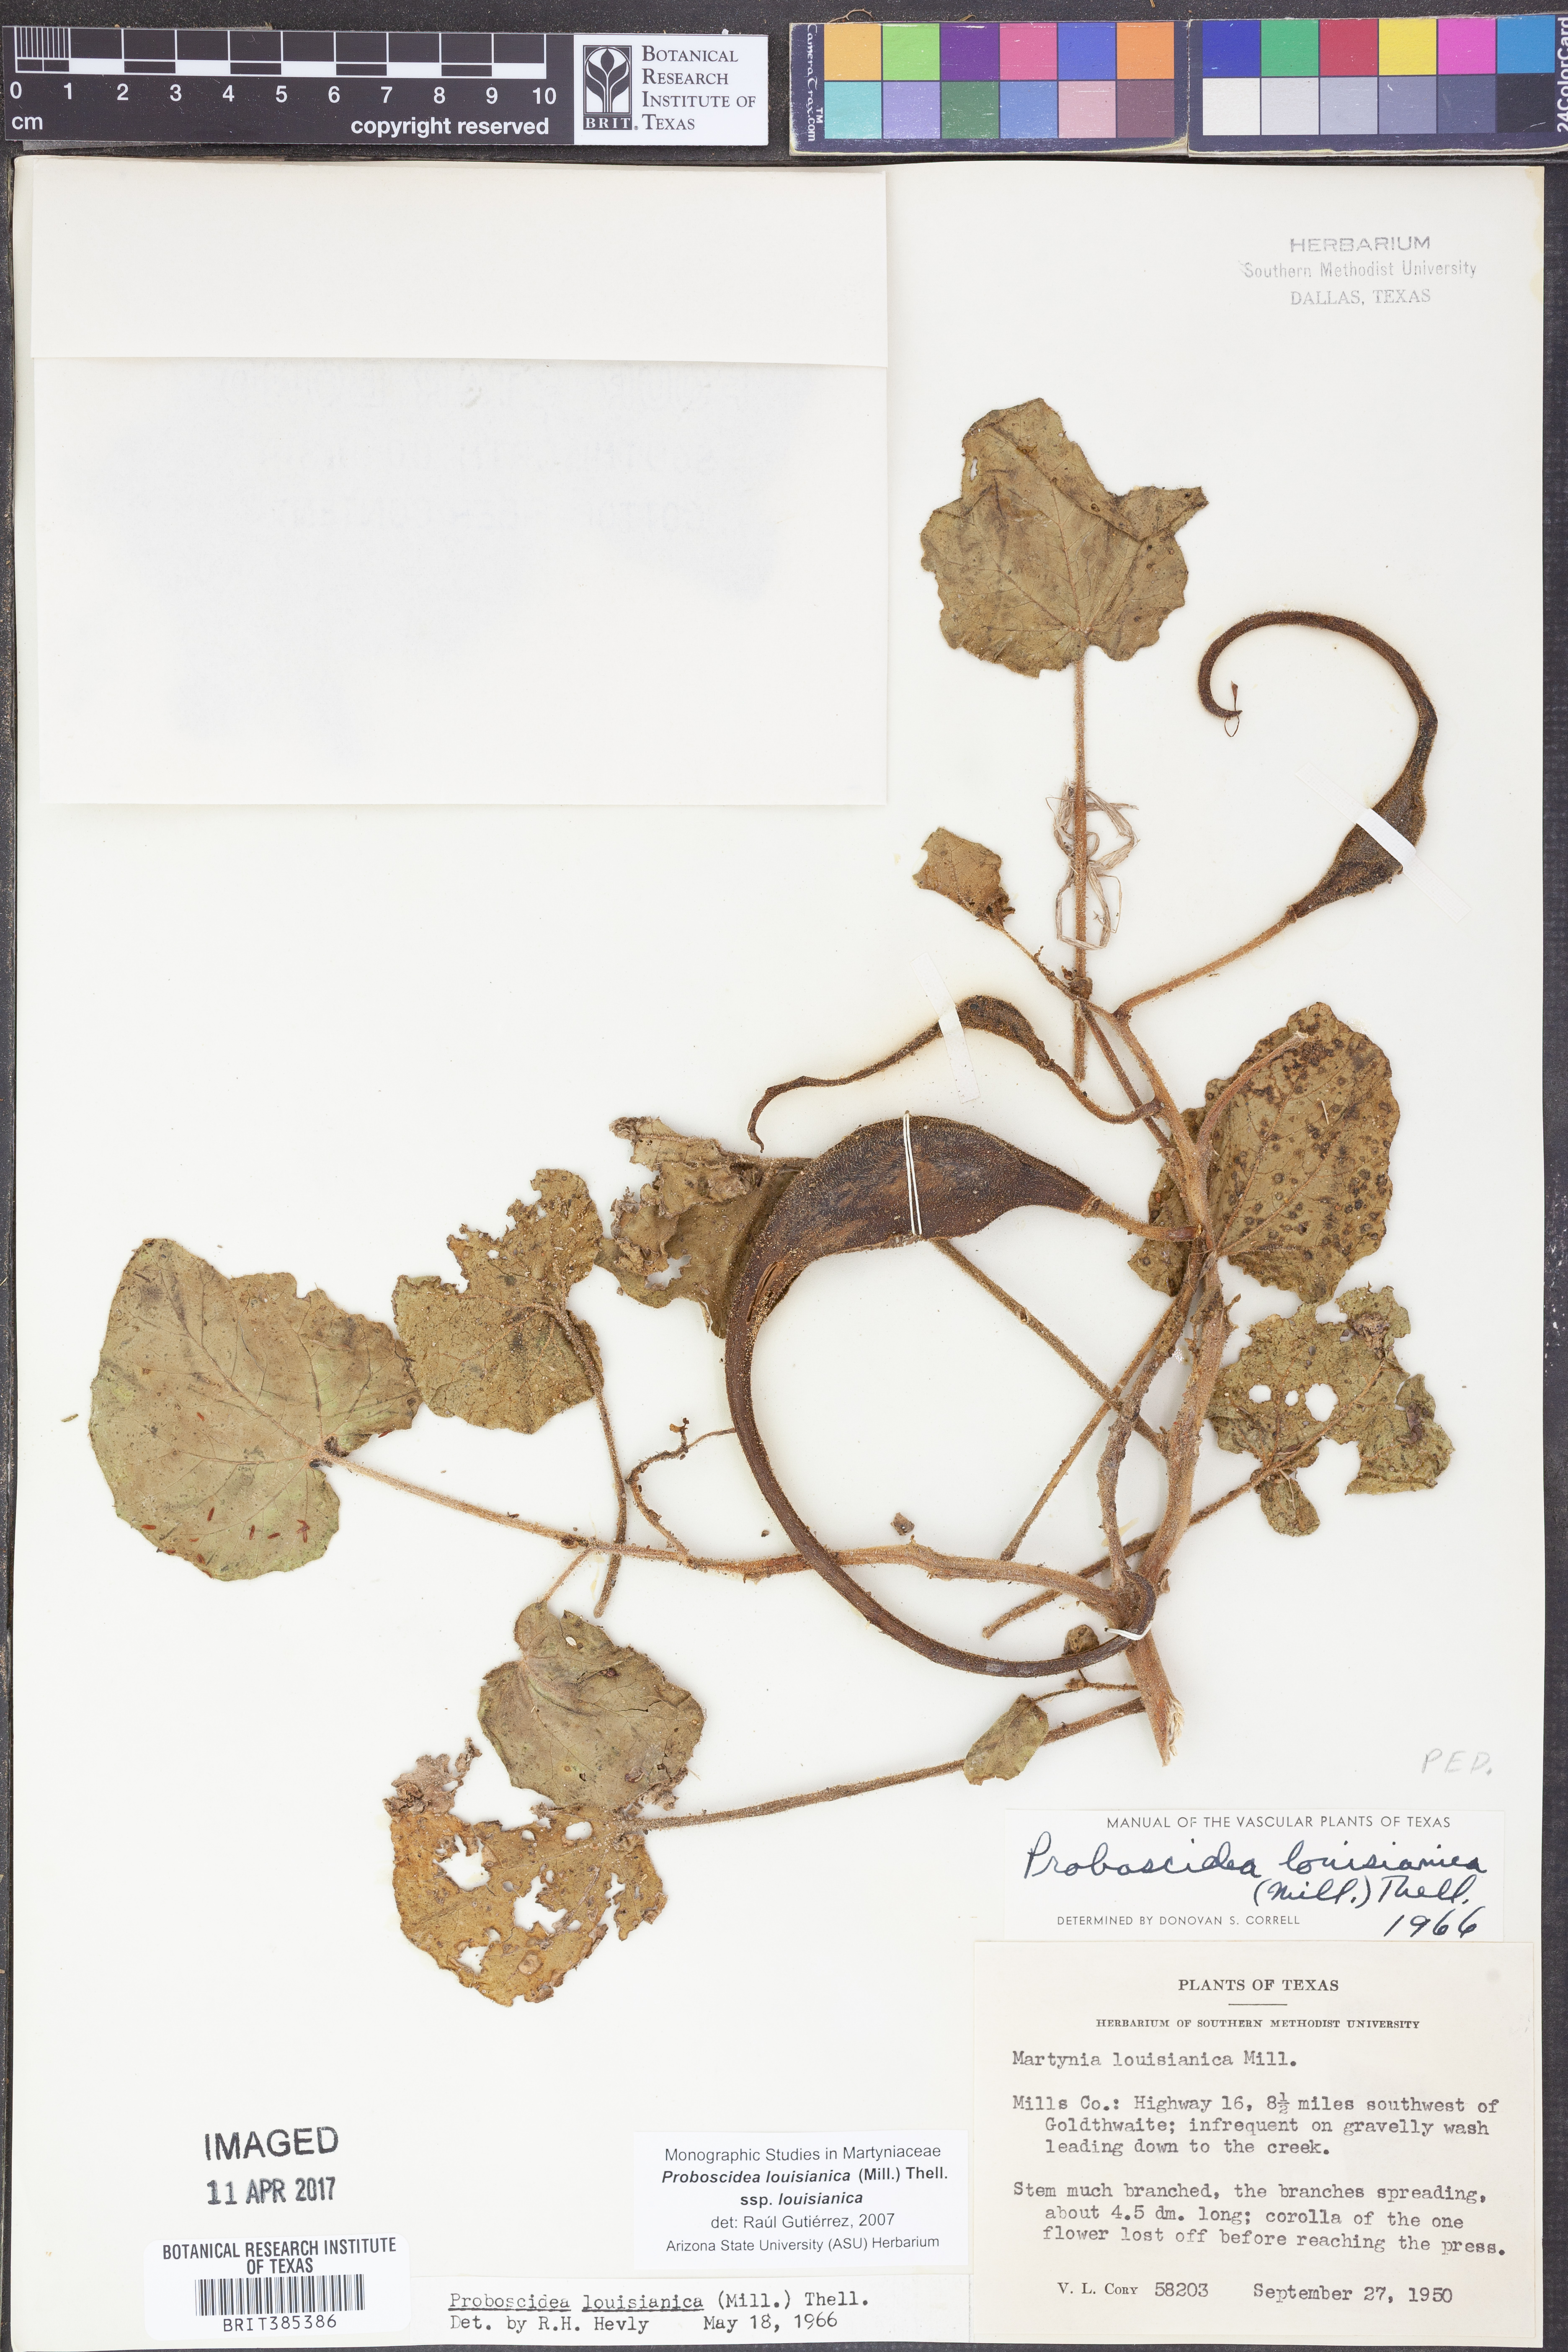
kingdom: Plantae
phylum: Tracheophyta
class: Magnoliopsida
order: Lamiales
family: Martyniaceae
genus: Proboscidea
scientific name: Proboscidea louisianica
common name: Elephant tusks
